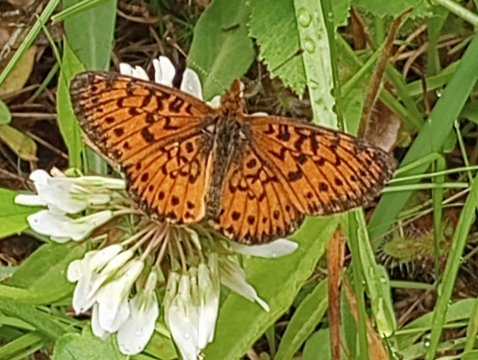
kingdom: Animalia
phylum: Arthropoda
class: Insecta
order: Lepidoptera
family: Nymphalidae
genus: Boloria
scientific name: Boloria selene
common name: Silver-bordered Fritillary
